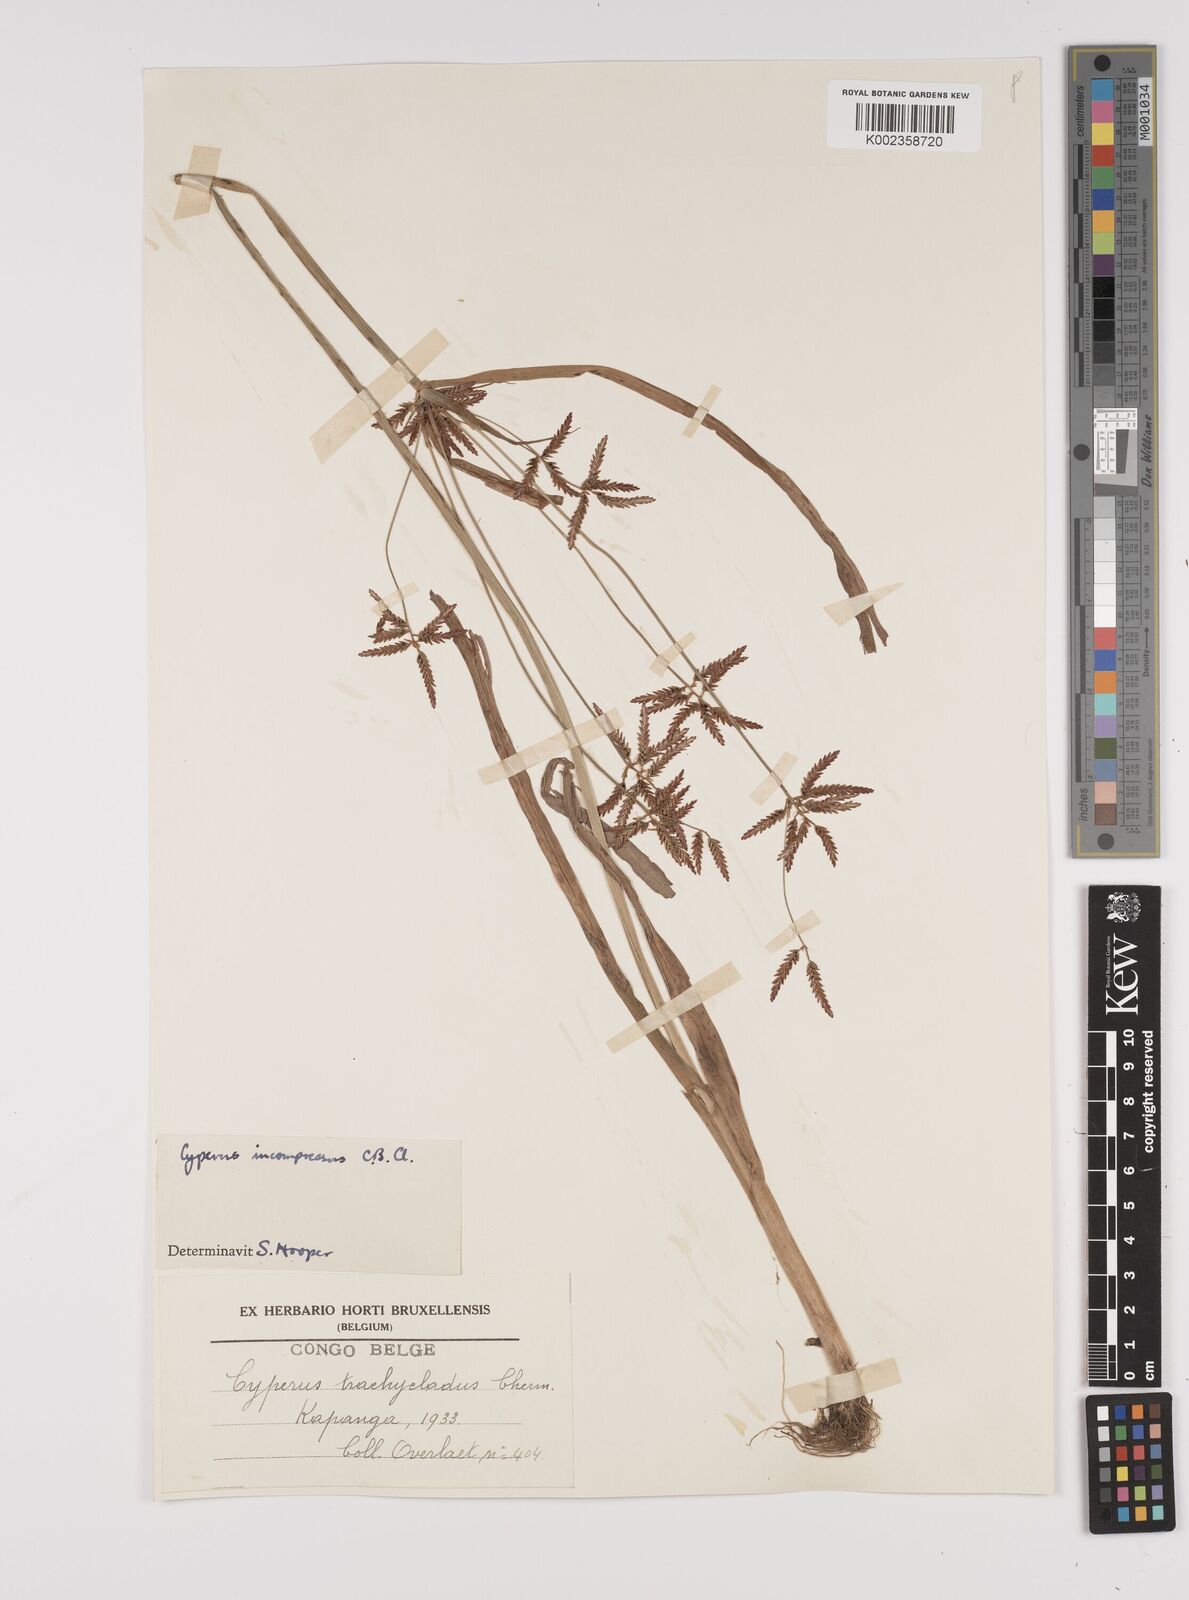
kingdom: Plantae
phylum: Tracheophyta
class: Liliopsida
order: Poales
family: Cyperaceae
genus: Cyperus
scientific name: Cyperus incompressus
